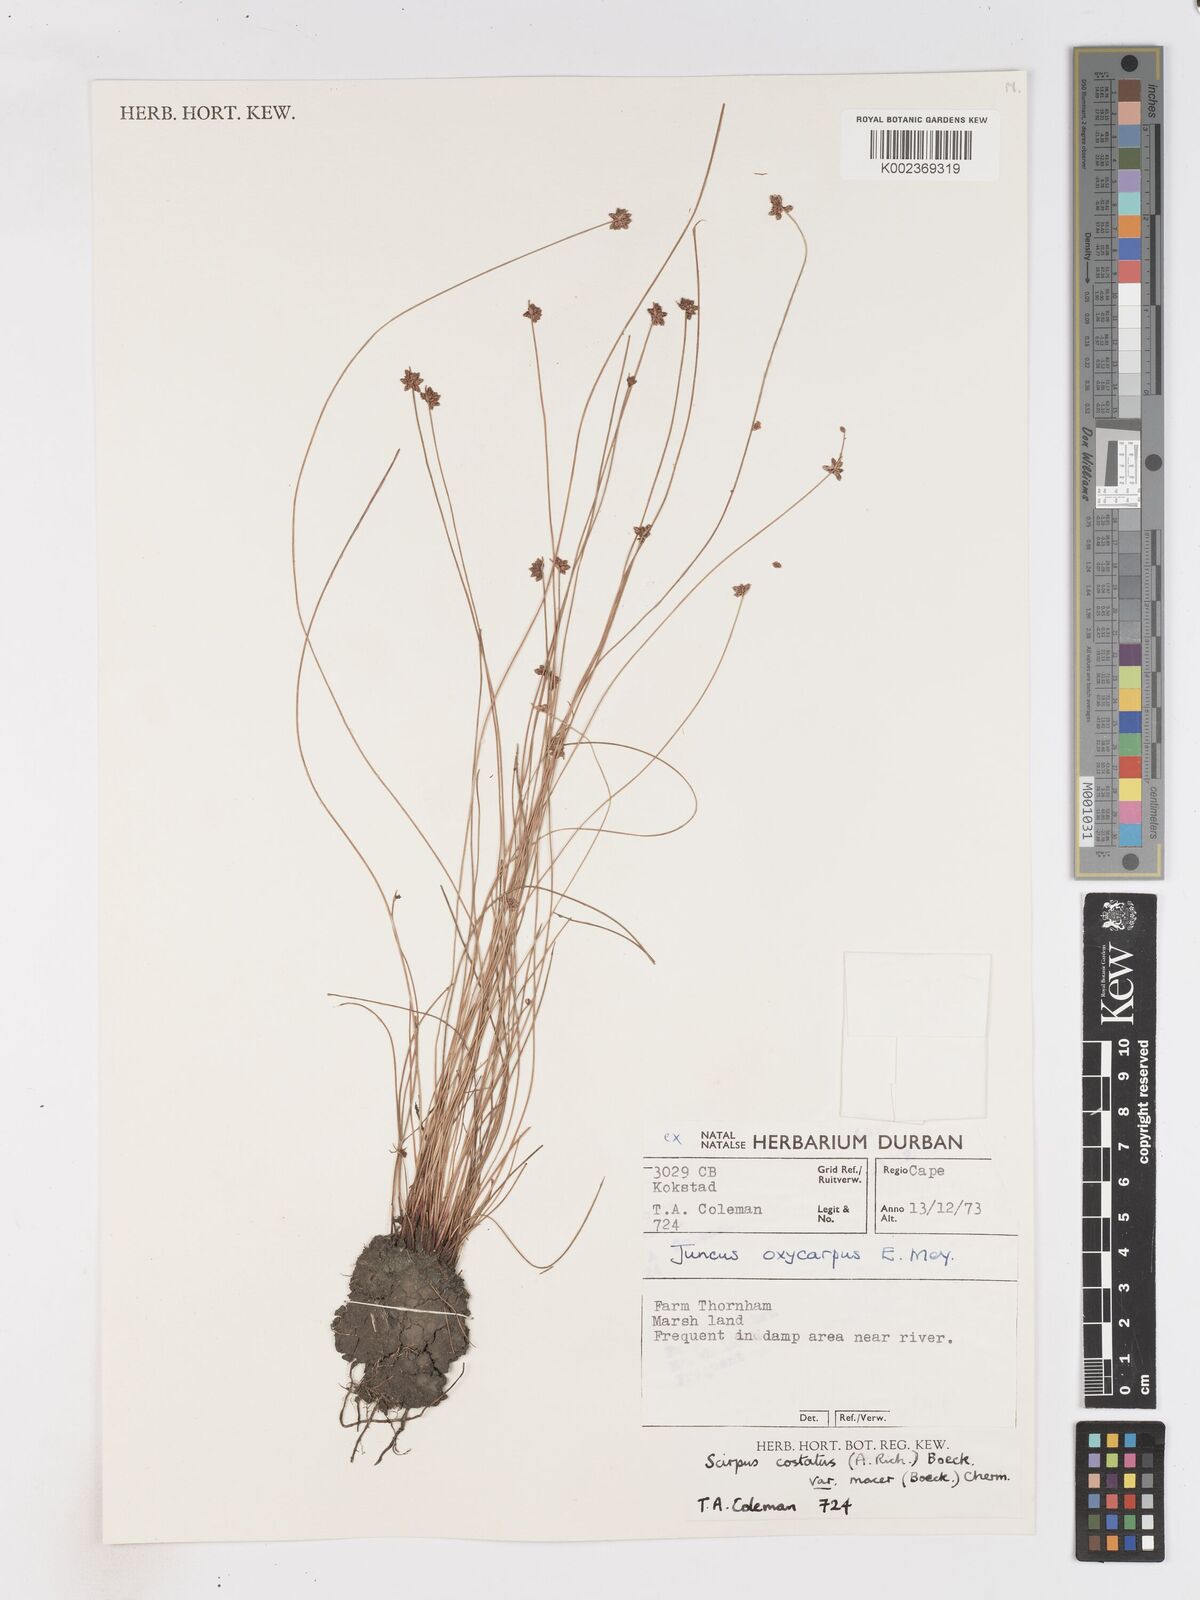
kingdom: Plantae
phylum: Tracheophyta
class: Liliopsida
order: Poales
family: Cyperaceae
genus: Isolepis
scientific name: Isolepis costata
